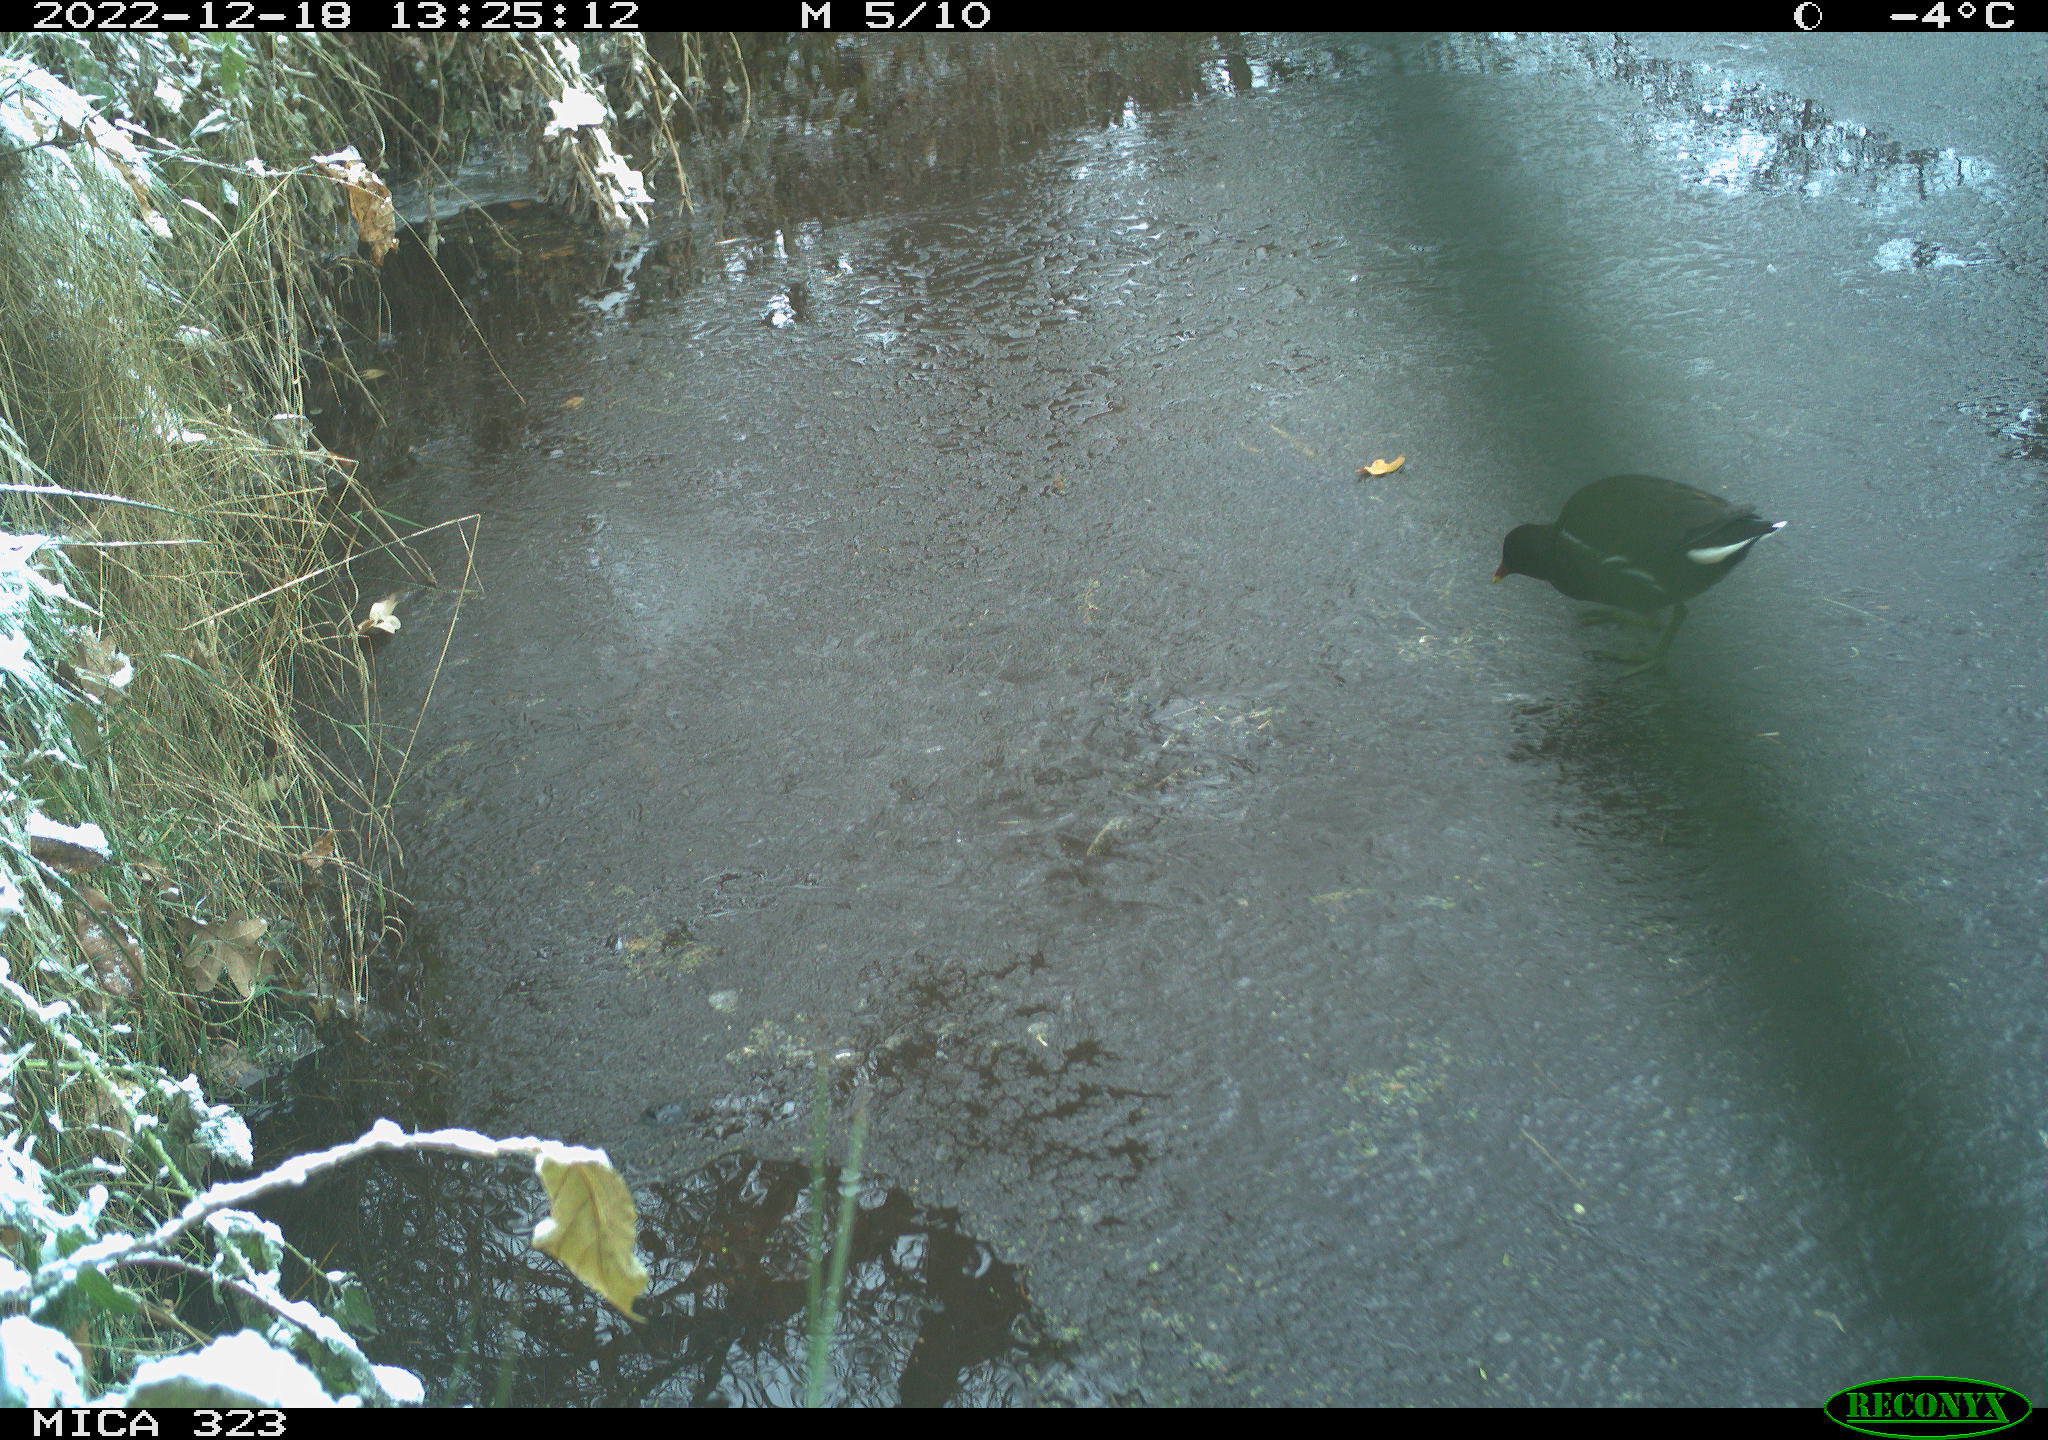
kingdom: Animalia
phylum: Chordata
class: Aves
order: Gruiformes
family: Rallidae
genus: Gallinula
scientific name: Gallinula chloropus
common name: Common moorhen
